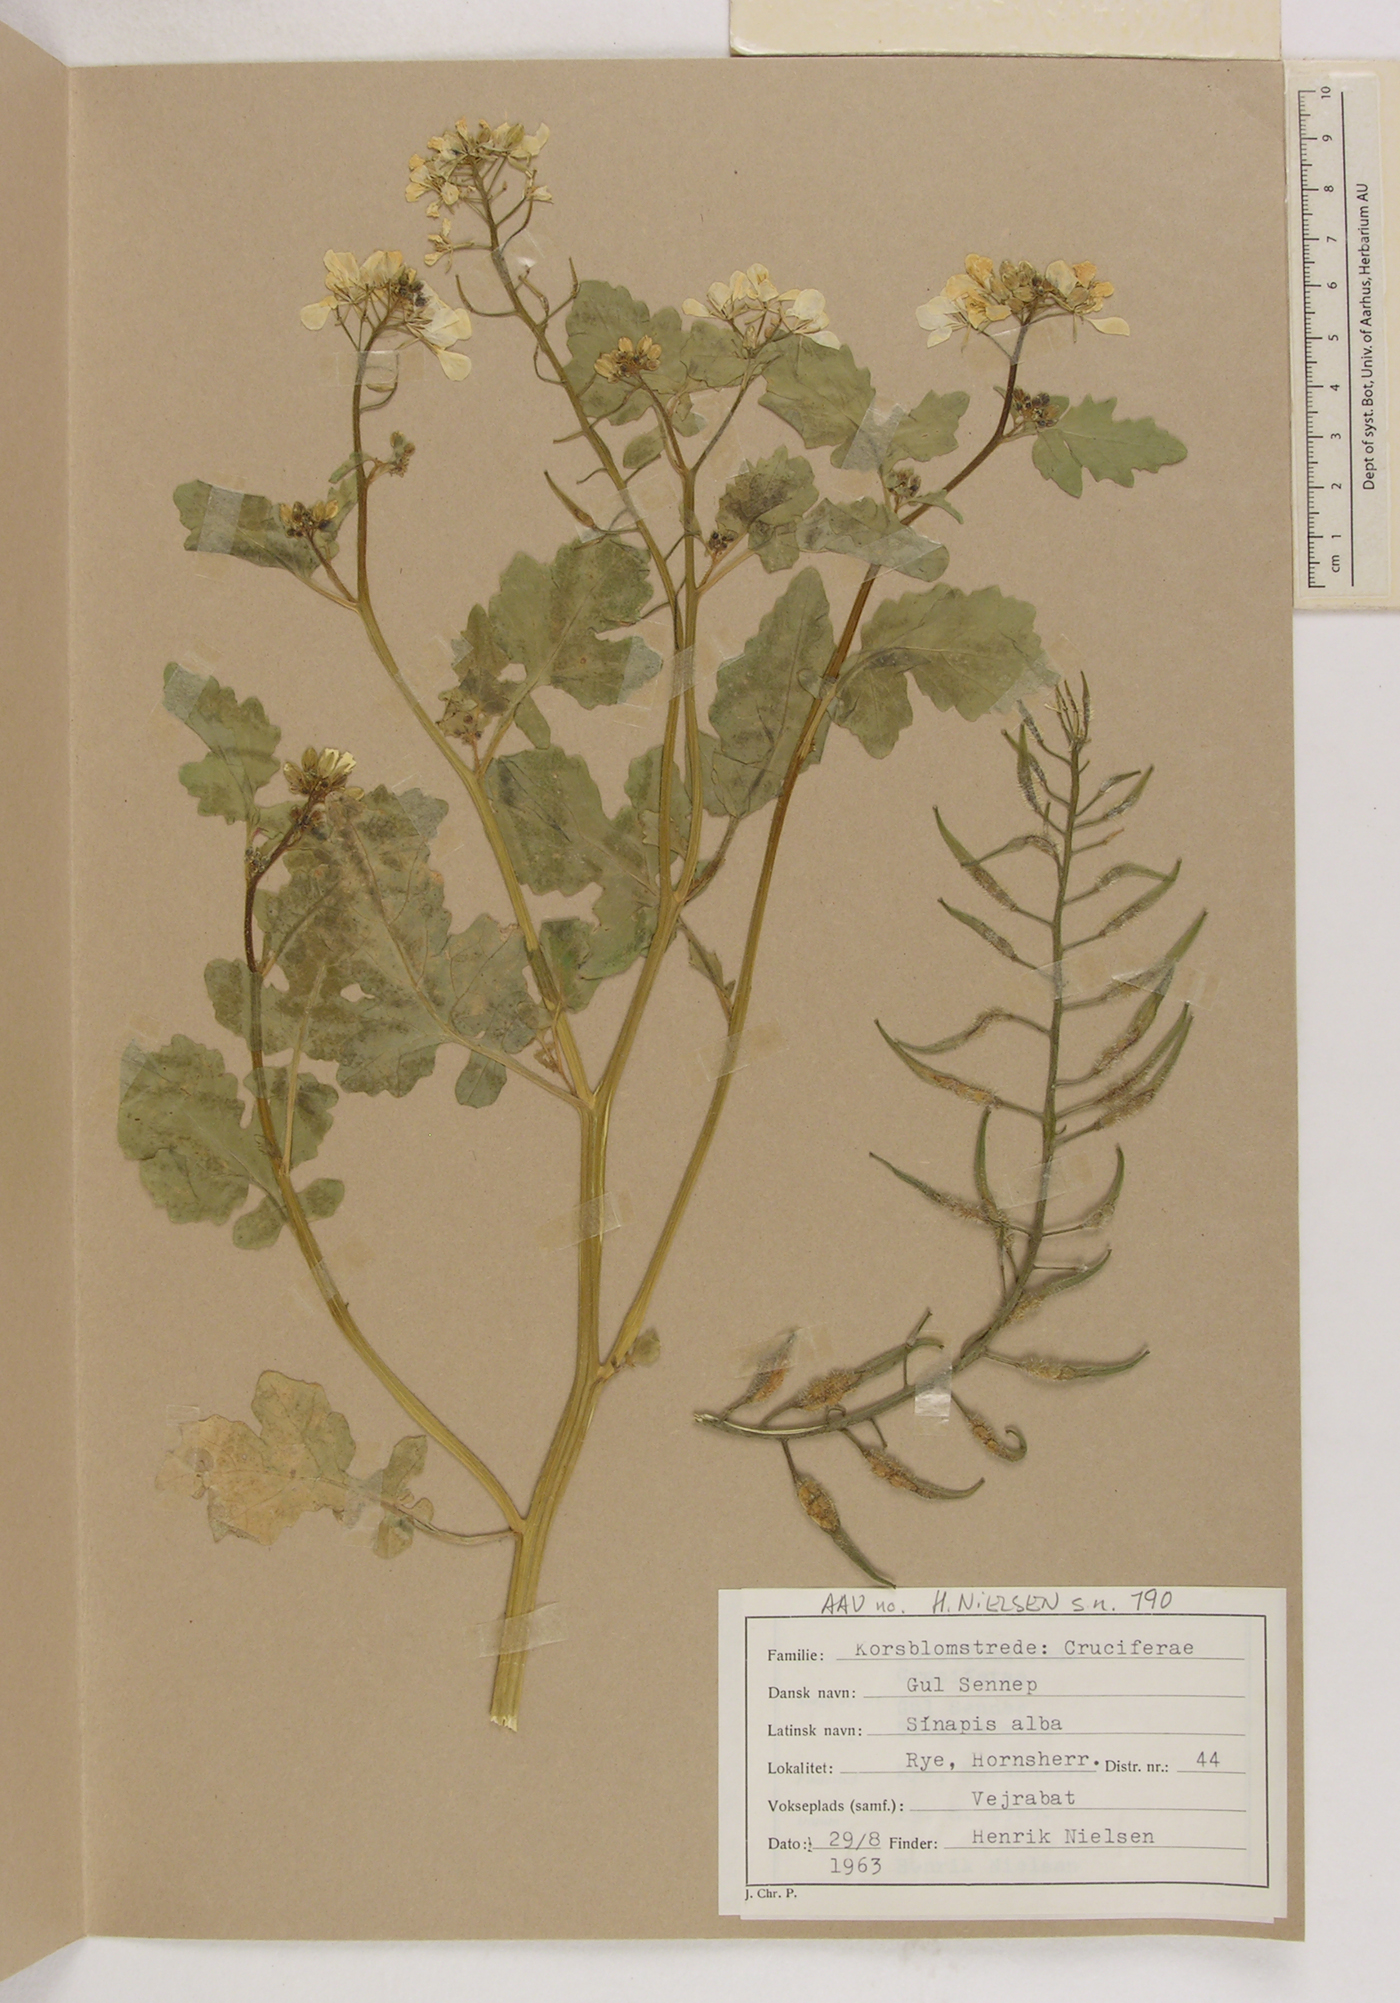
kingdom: Plantae
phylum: Tracheophyta
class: Magnoliopsida
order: Brassicales
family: Brassicaceae
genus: Sinapis
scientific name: Sinapis alba
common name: White mustard
